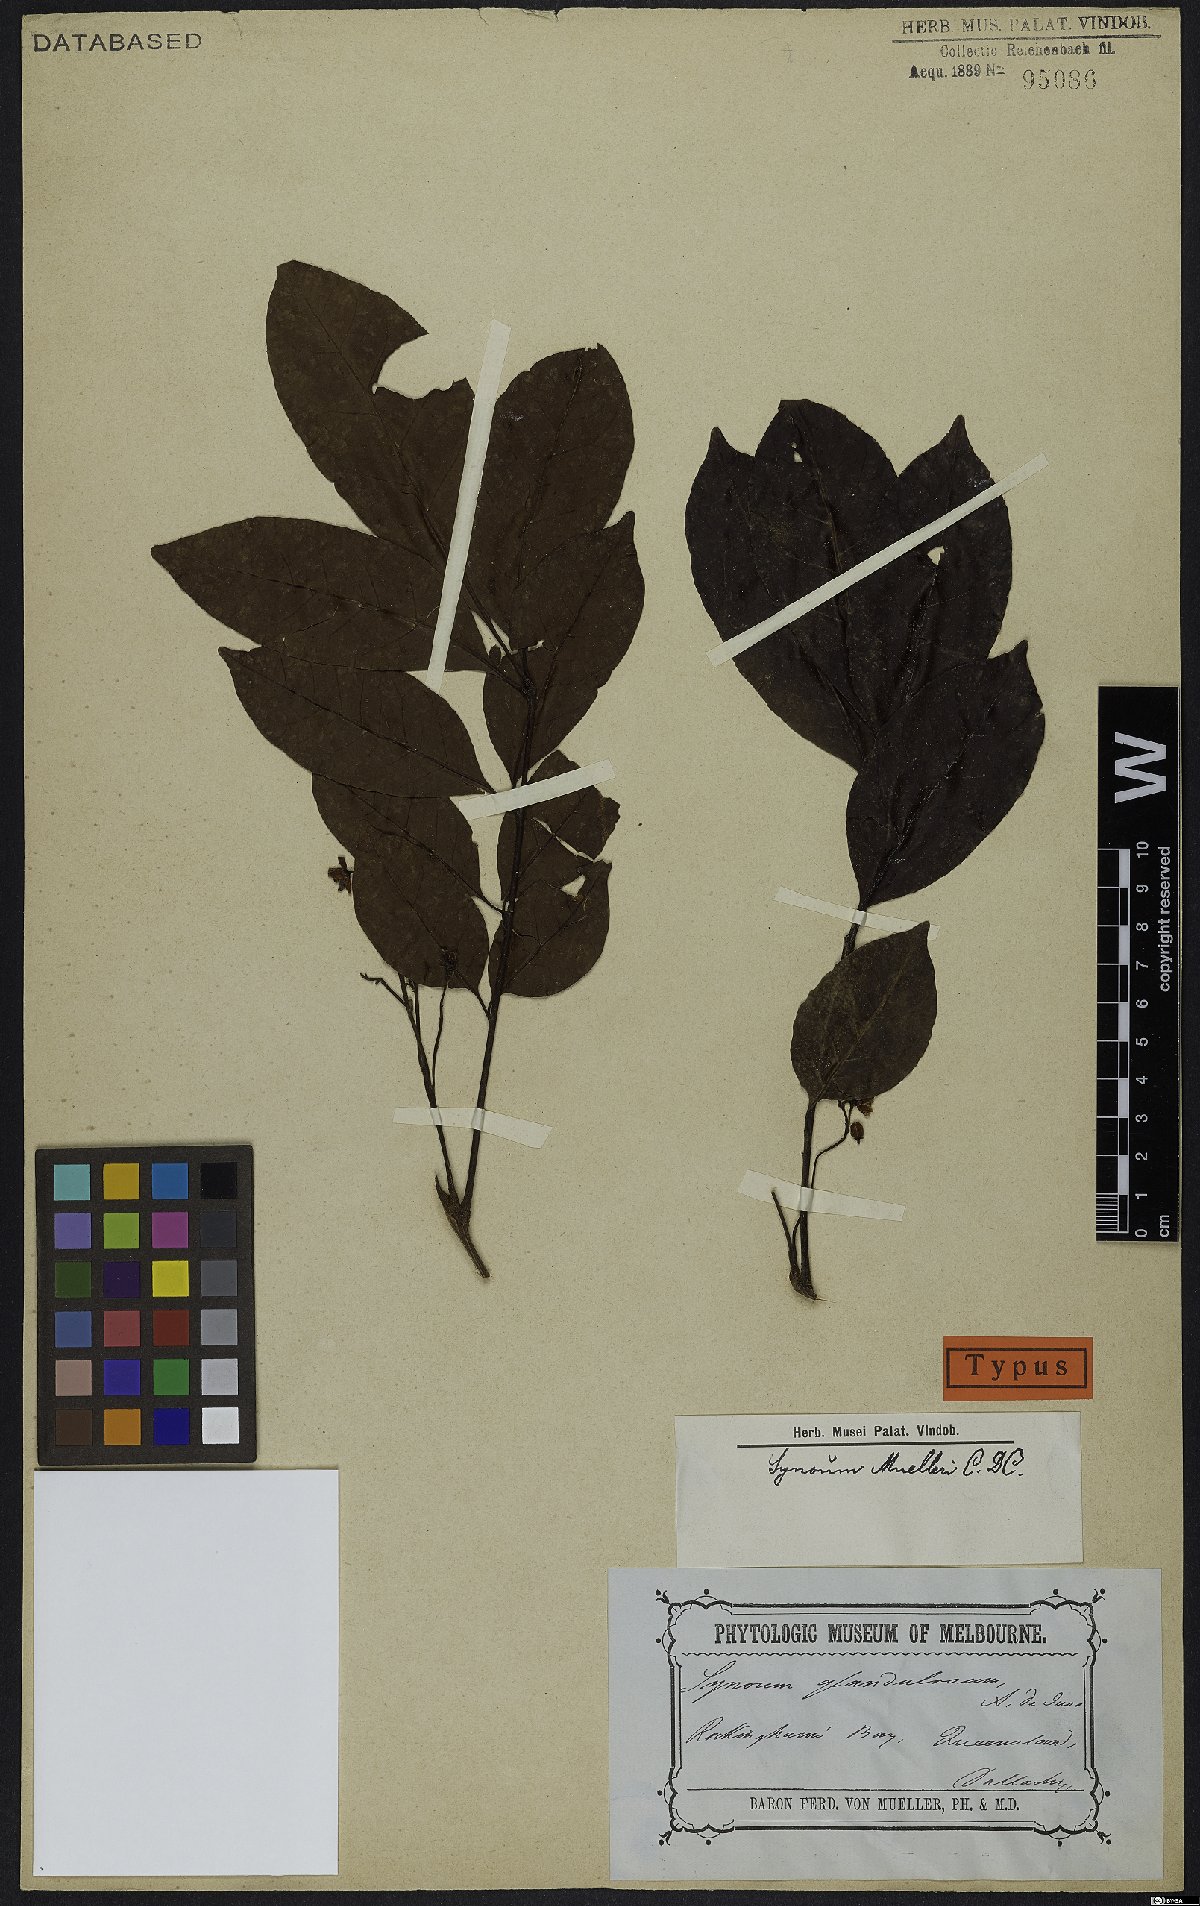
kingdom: Plantae
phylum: Tracheophyta
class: Magnoliopsida
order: Sapindales
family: Meliaceae
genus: Synoum
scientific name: Synoum glandulosum
